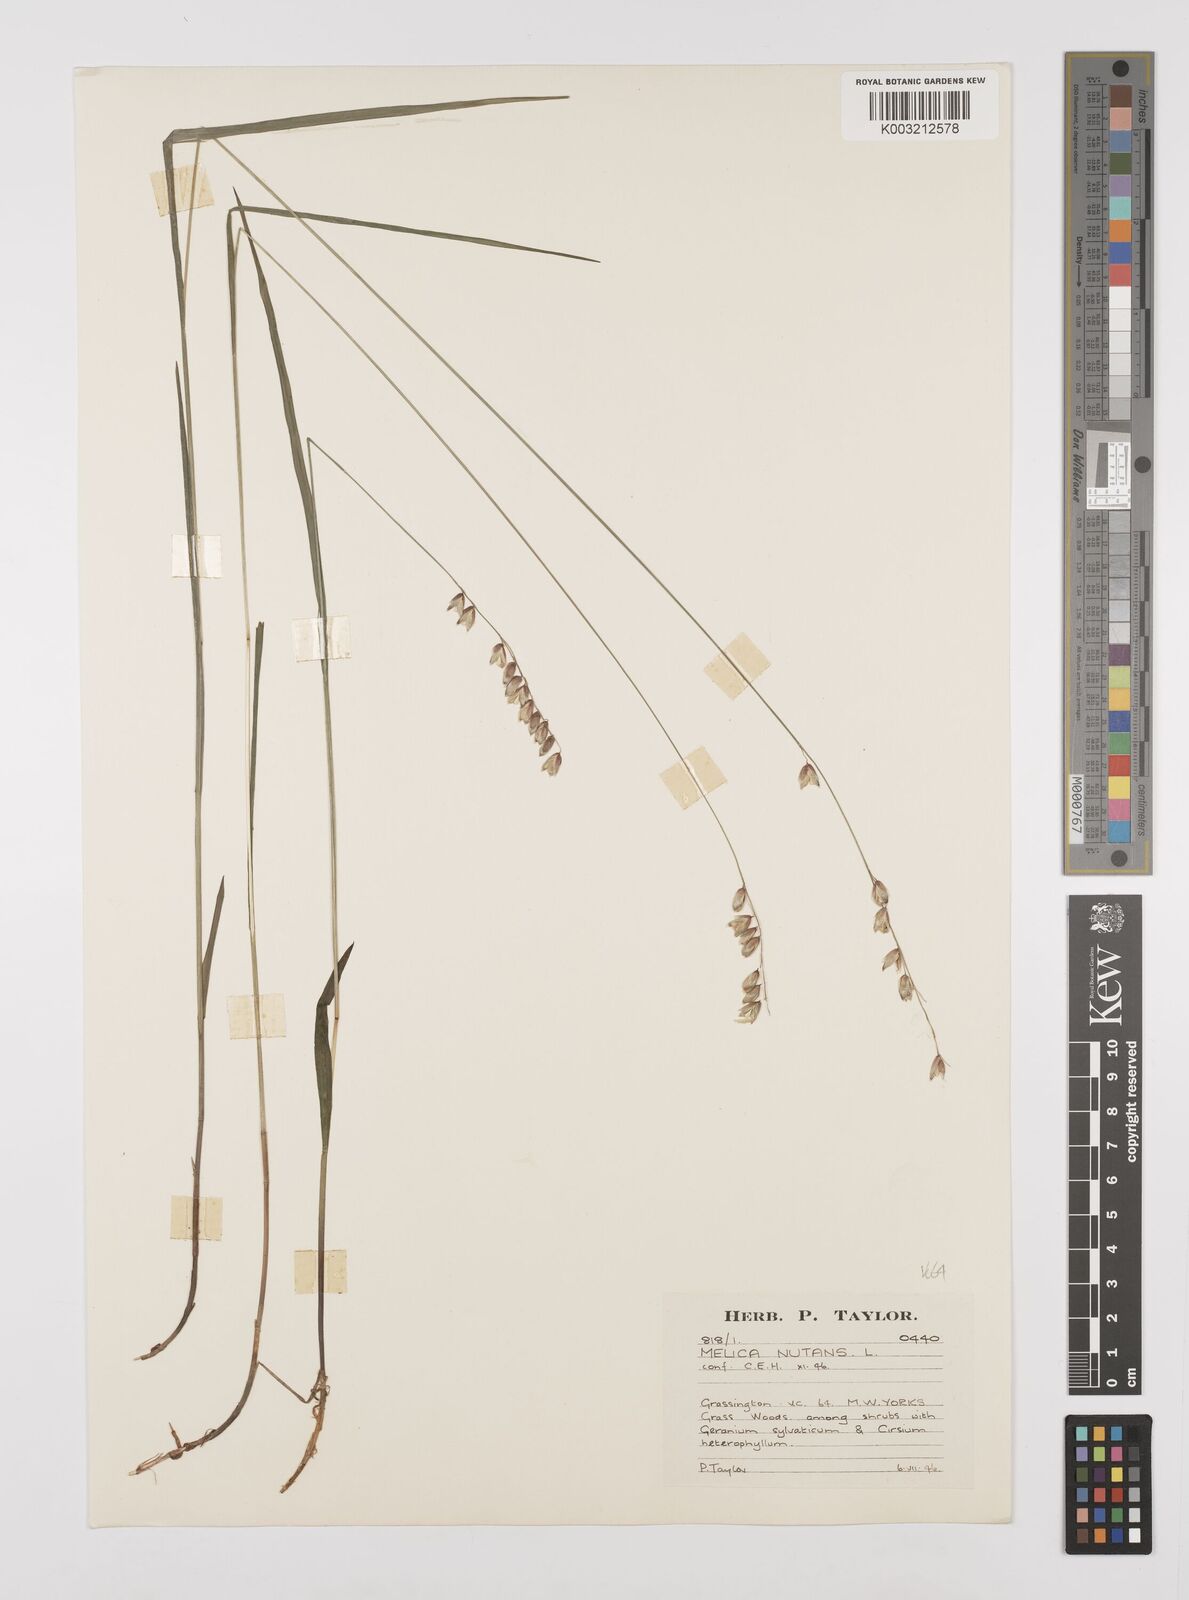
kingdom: Plantae
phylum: Tracheophyta
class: Liliopsida
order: Poales
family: Poaceae
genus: Melica
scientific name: Melica
